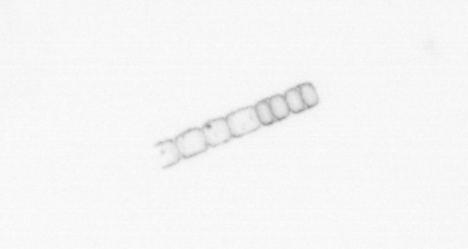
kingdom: Chromista
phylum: Ochrophyta
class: Bacillariophyceae
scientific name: Bacillariophyceae
